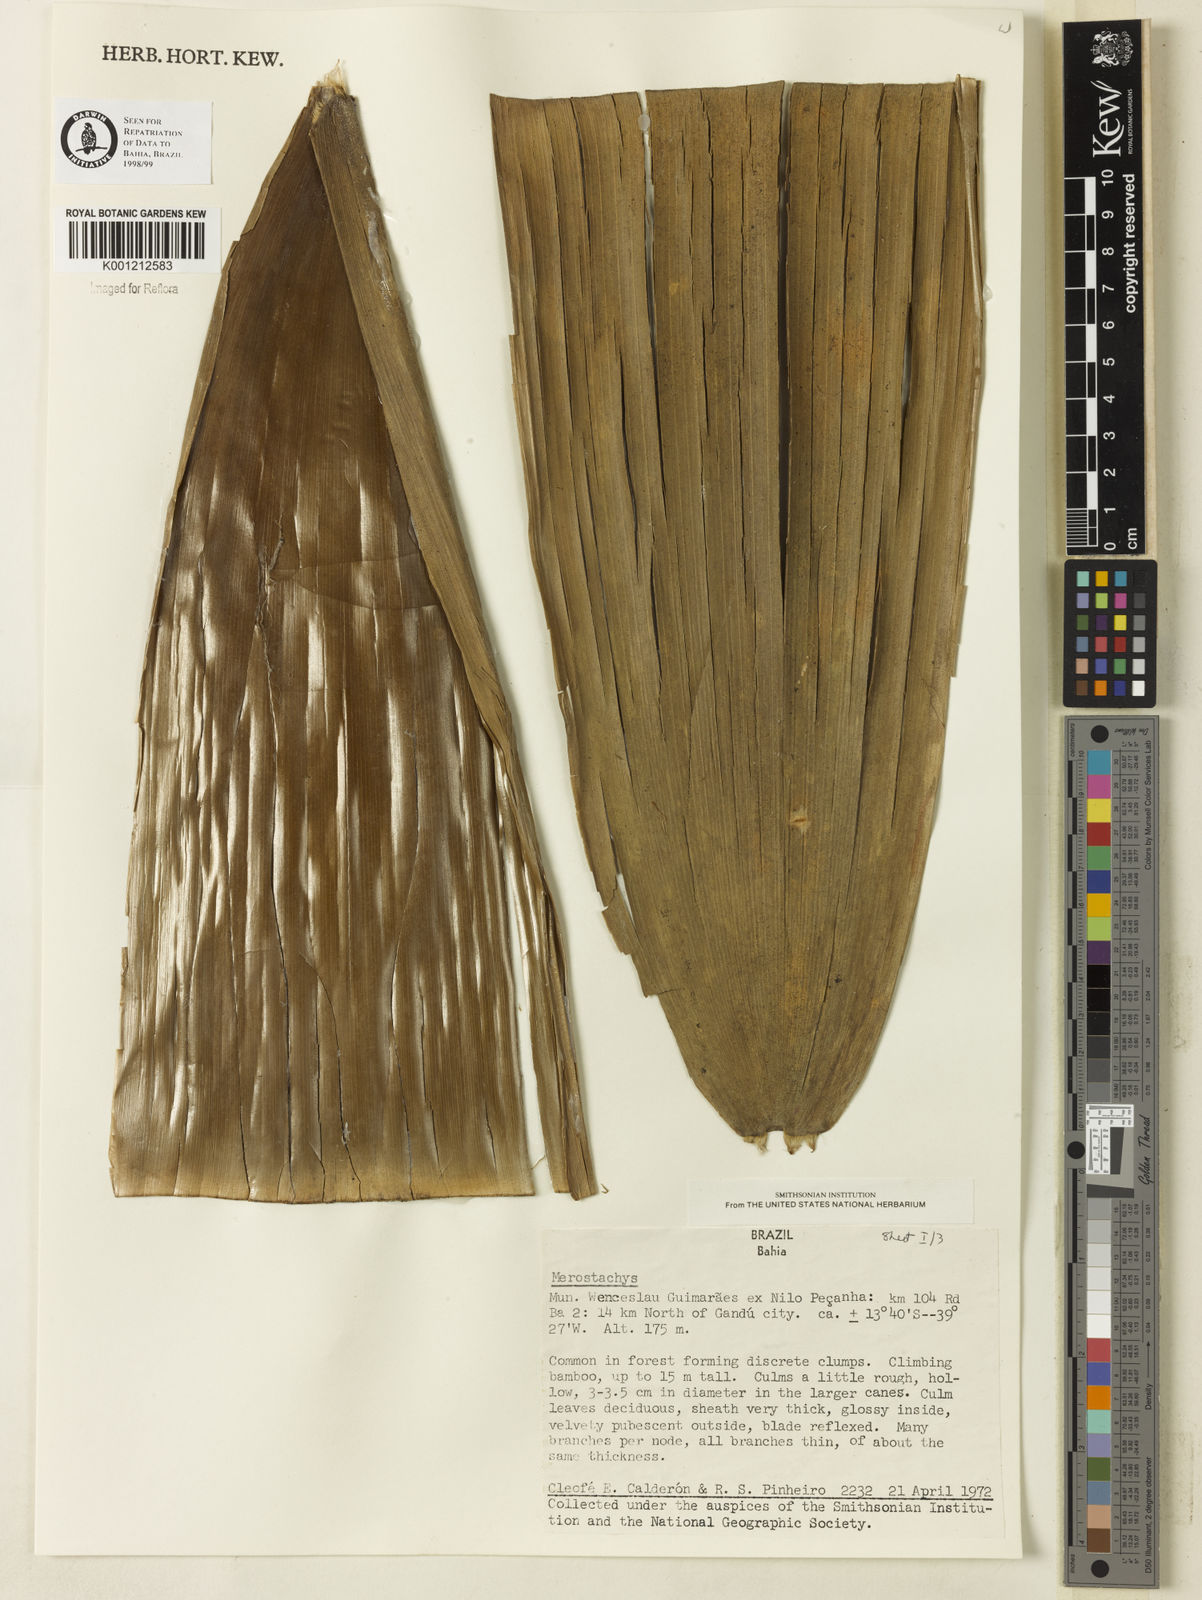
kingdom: Plantae
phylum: Tracheophyta
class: Liliopsida
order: Poales
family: Poaceae
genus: Merostachys
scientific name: Merostachys
